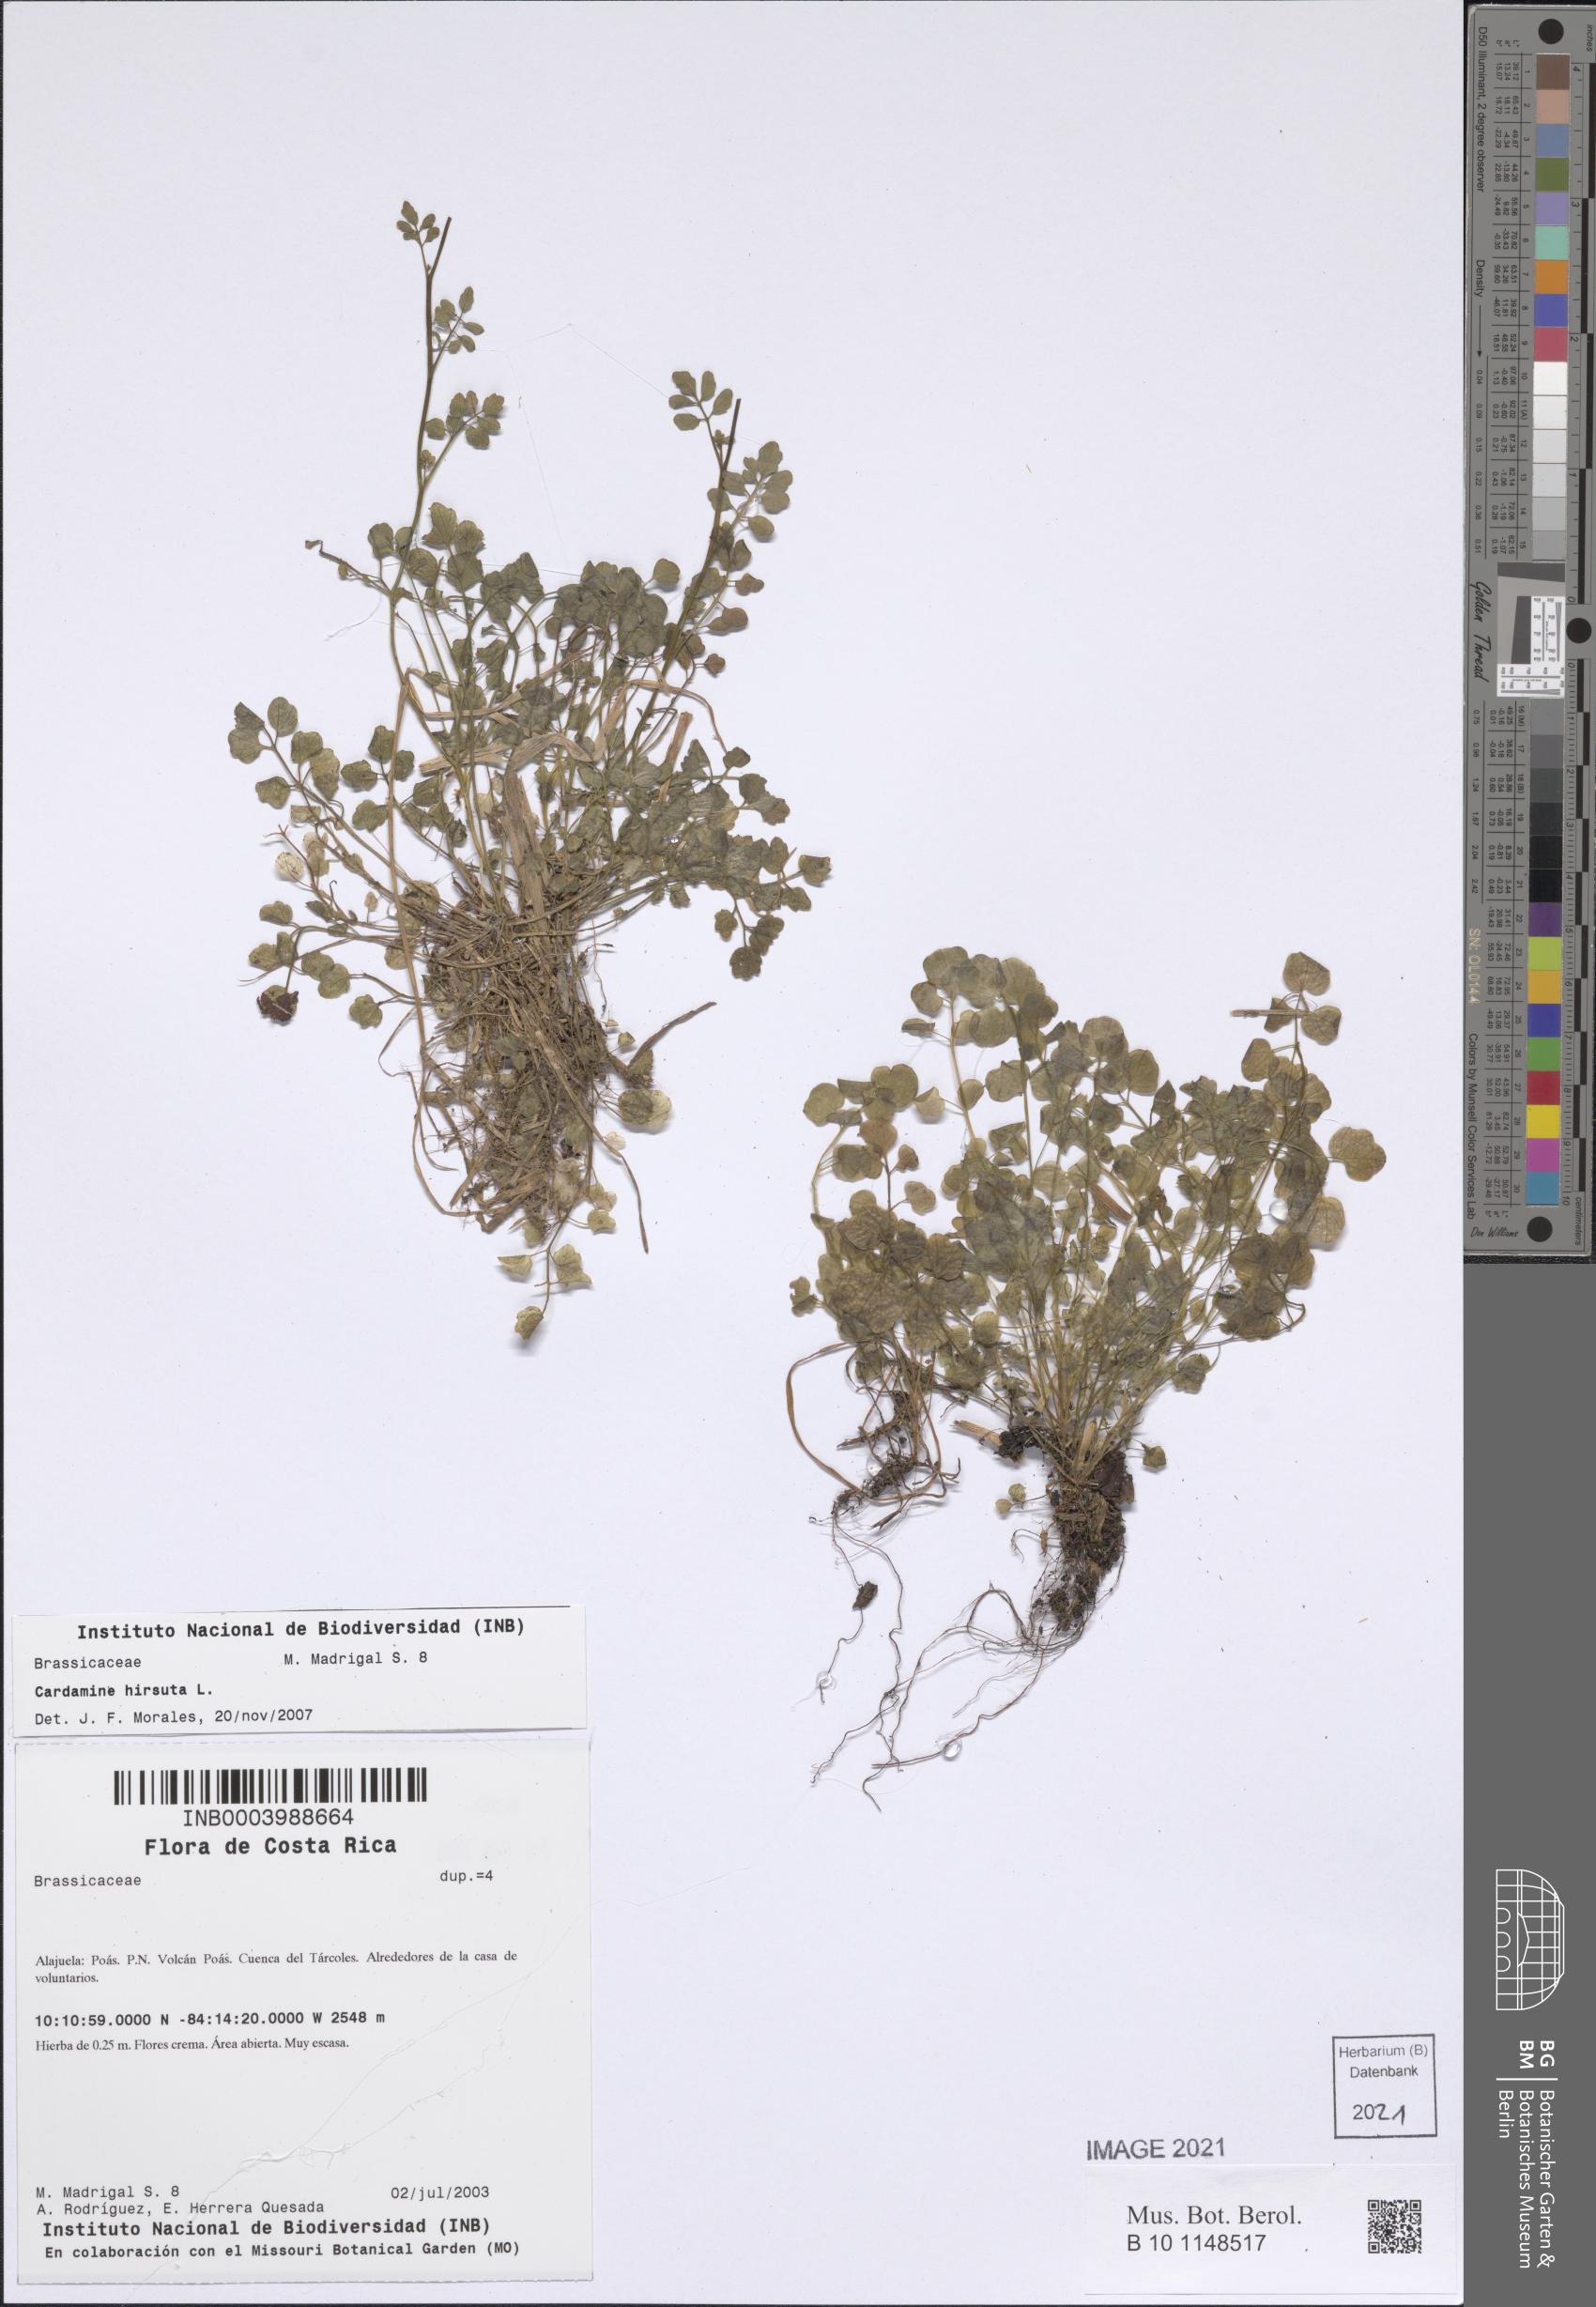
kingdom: Plantae
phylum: Tracheophyta
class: Magnoliopsida
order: Brassicales
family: Brassicaceae
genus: Cardamine
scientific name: Cardamine hirsuta
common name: Hairy bittercress
